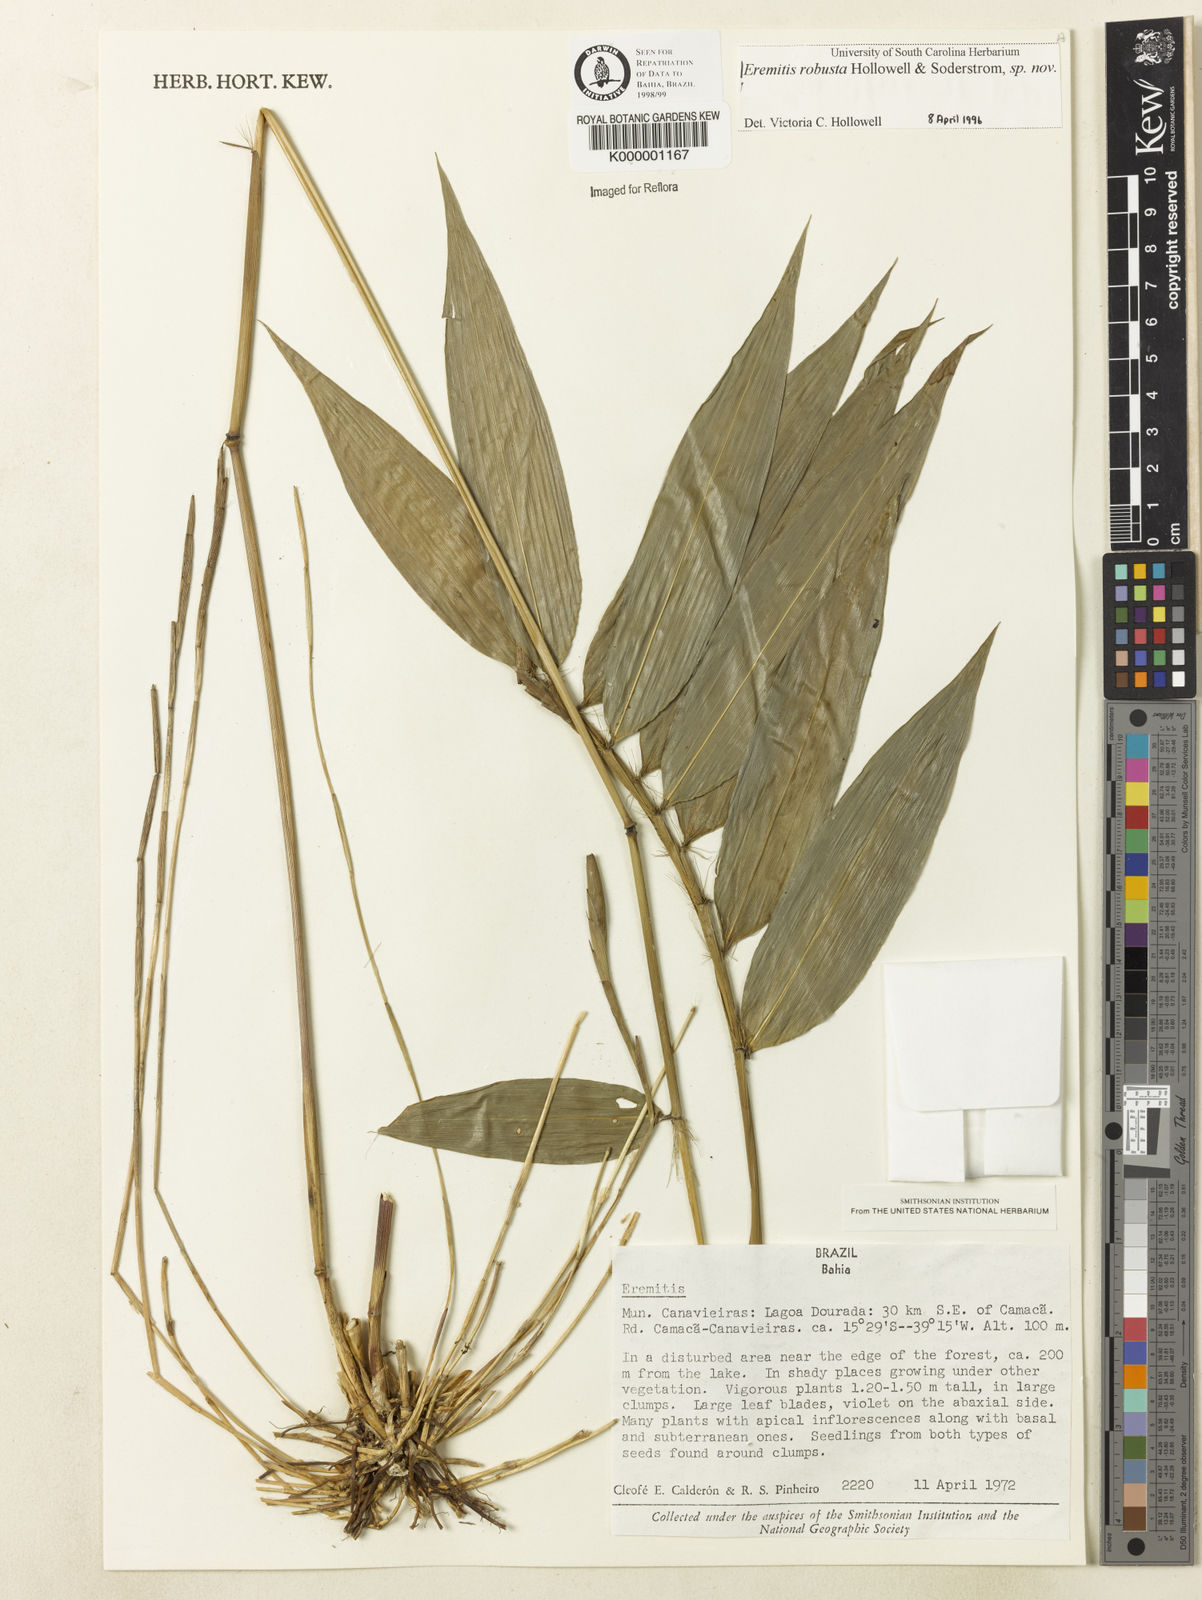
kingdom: Plantae
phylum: Tracheophyta
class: Liliopsida
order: Poales
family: Poaceae
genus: Eremitis
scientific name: Eremitis
